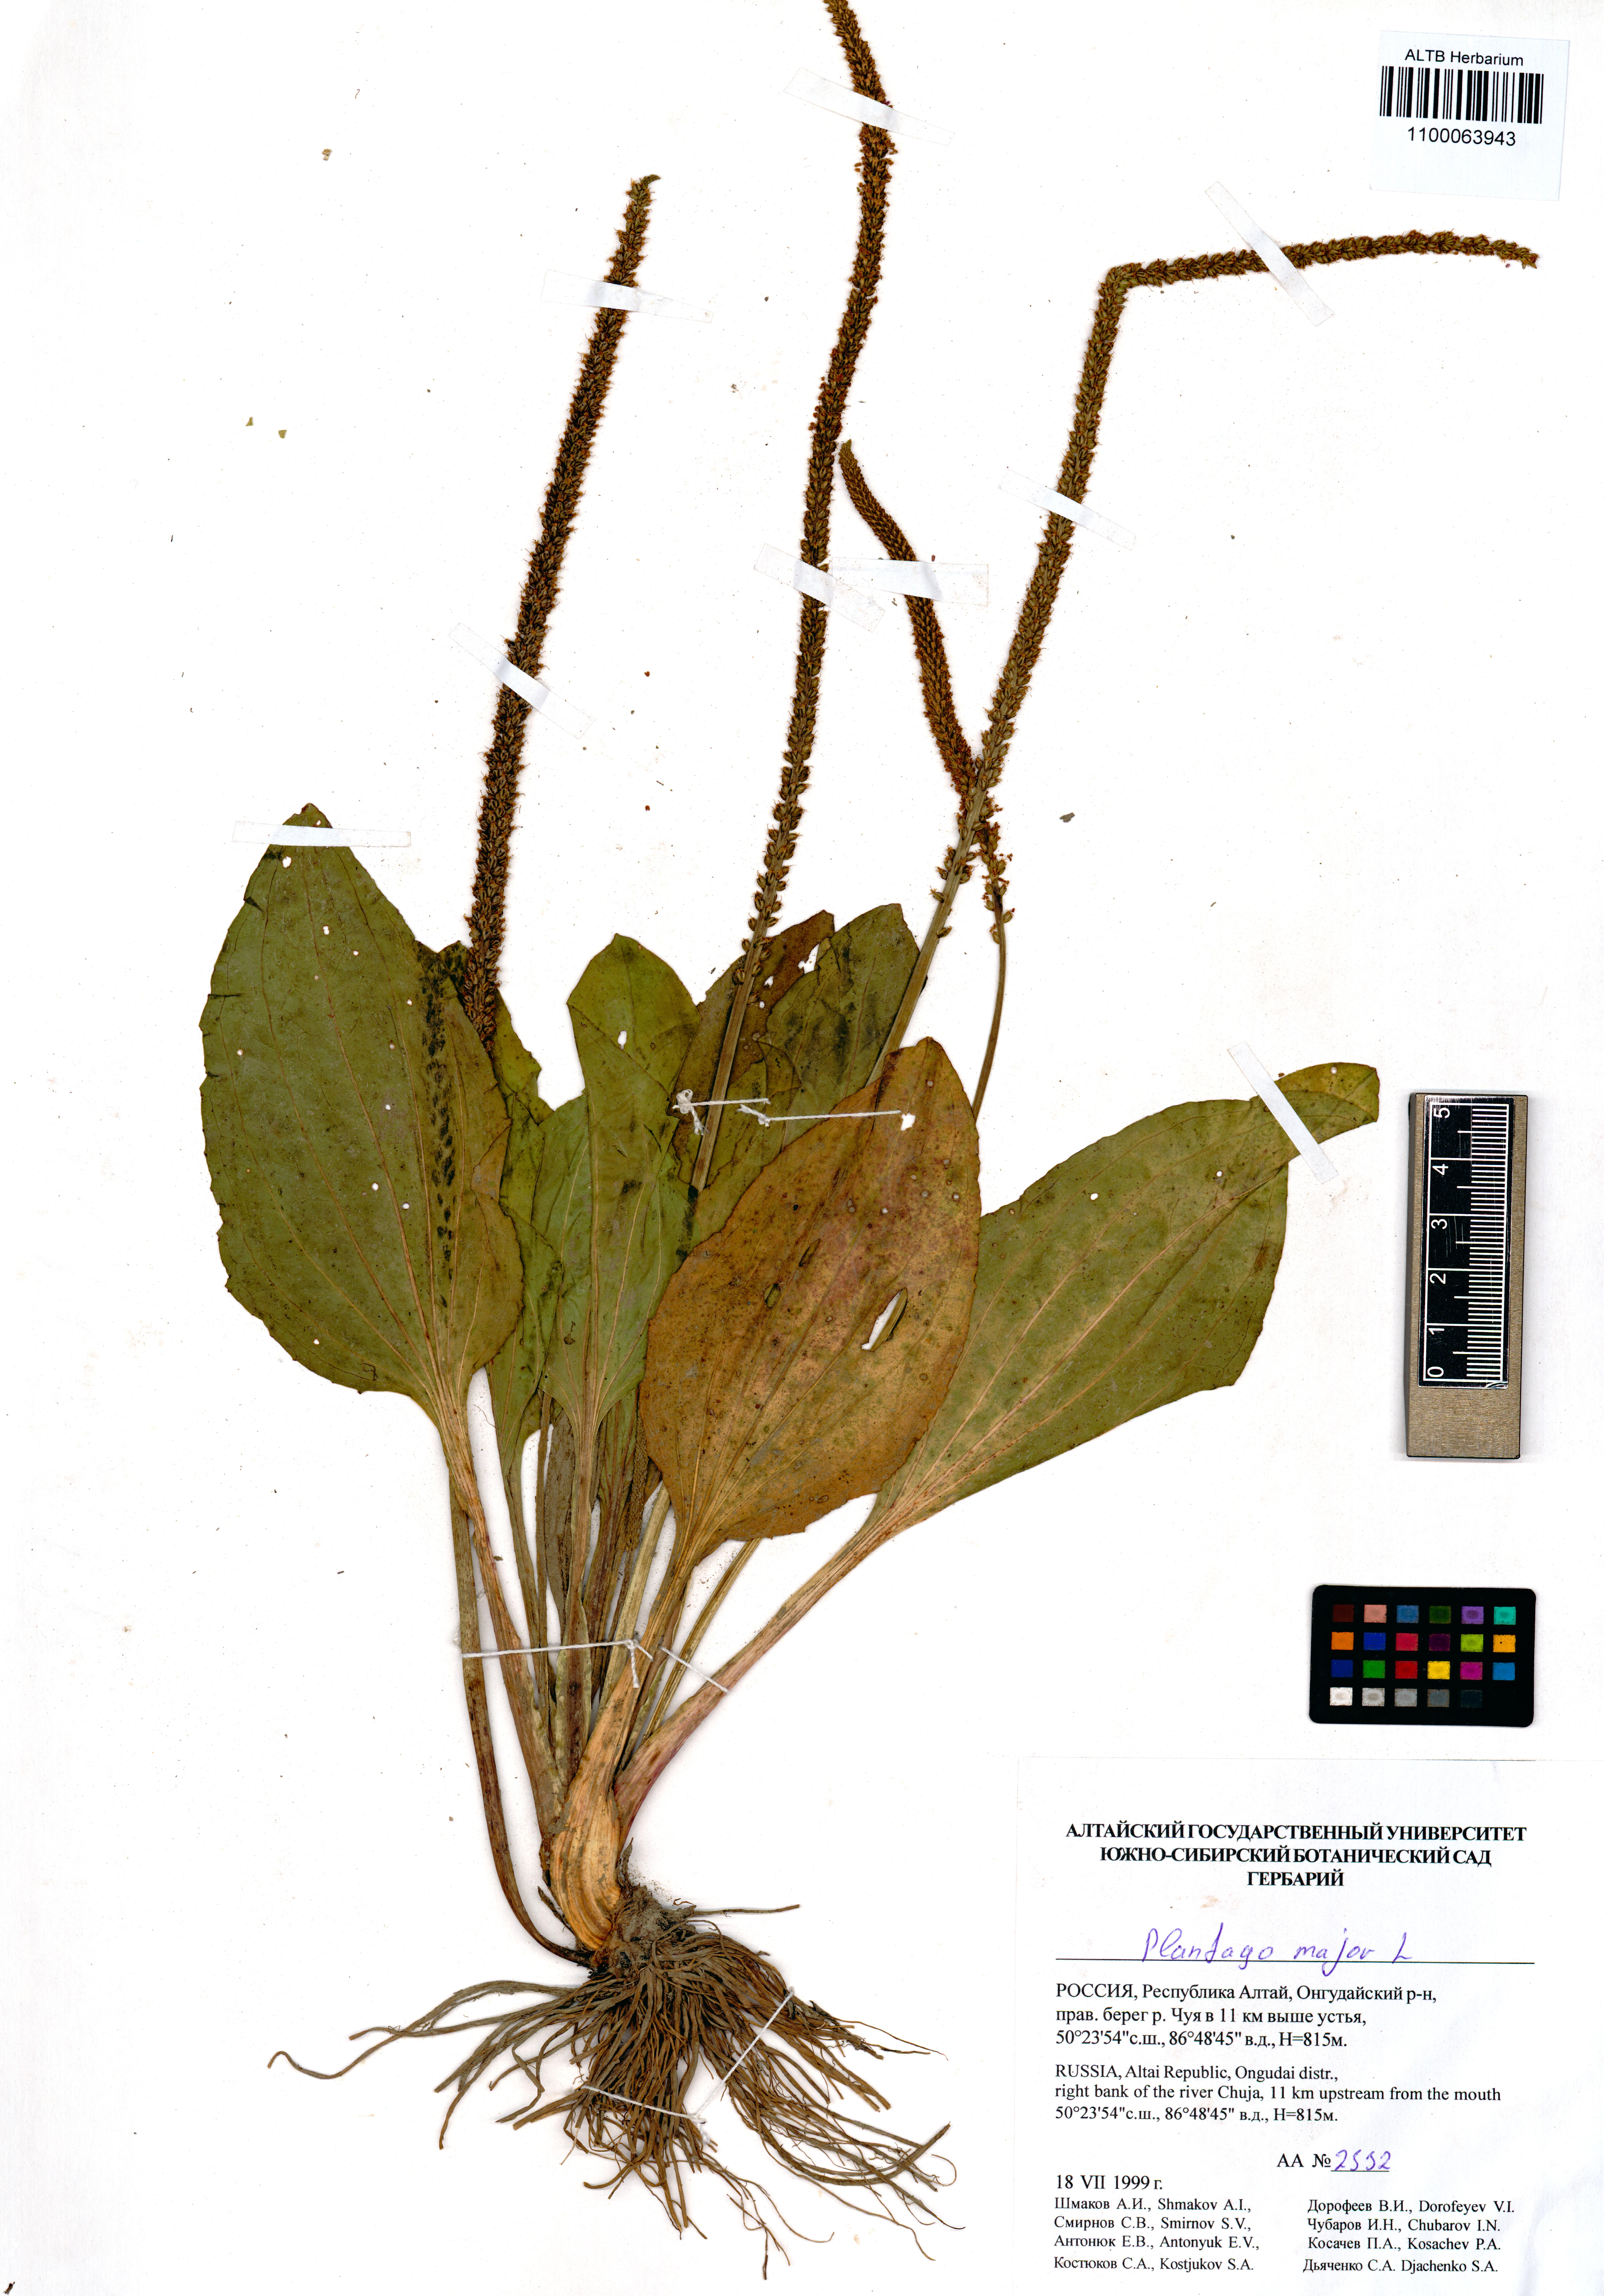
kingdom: Plantae
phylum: Tracheophyta
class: Magnoliopsida
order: Lamiales
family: Plantaginaceae
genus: Plantago
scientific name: Plantago major
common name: Common plantain
